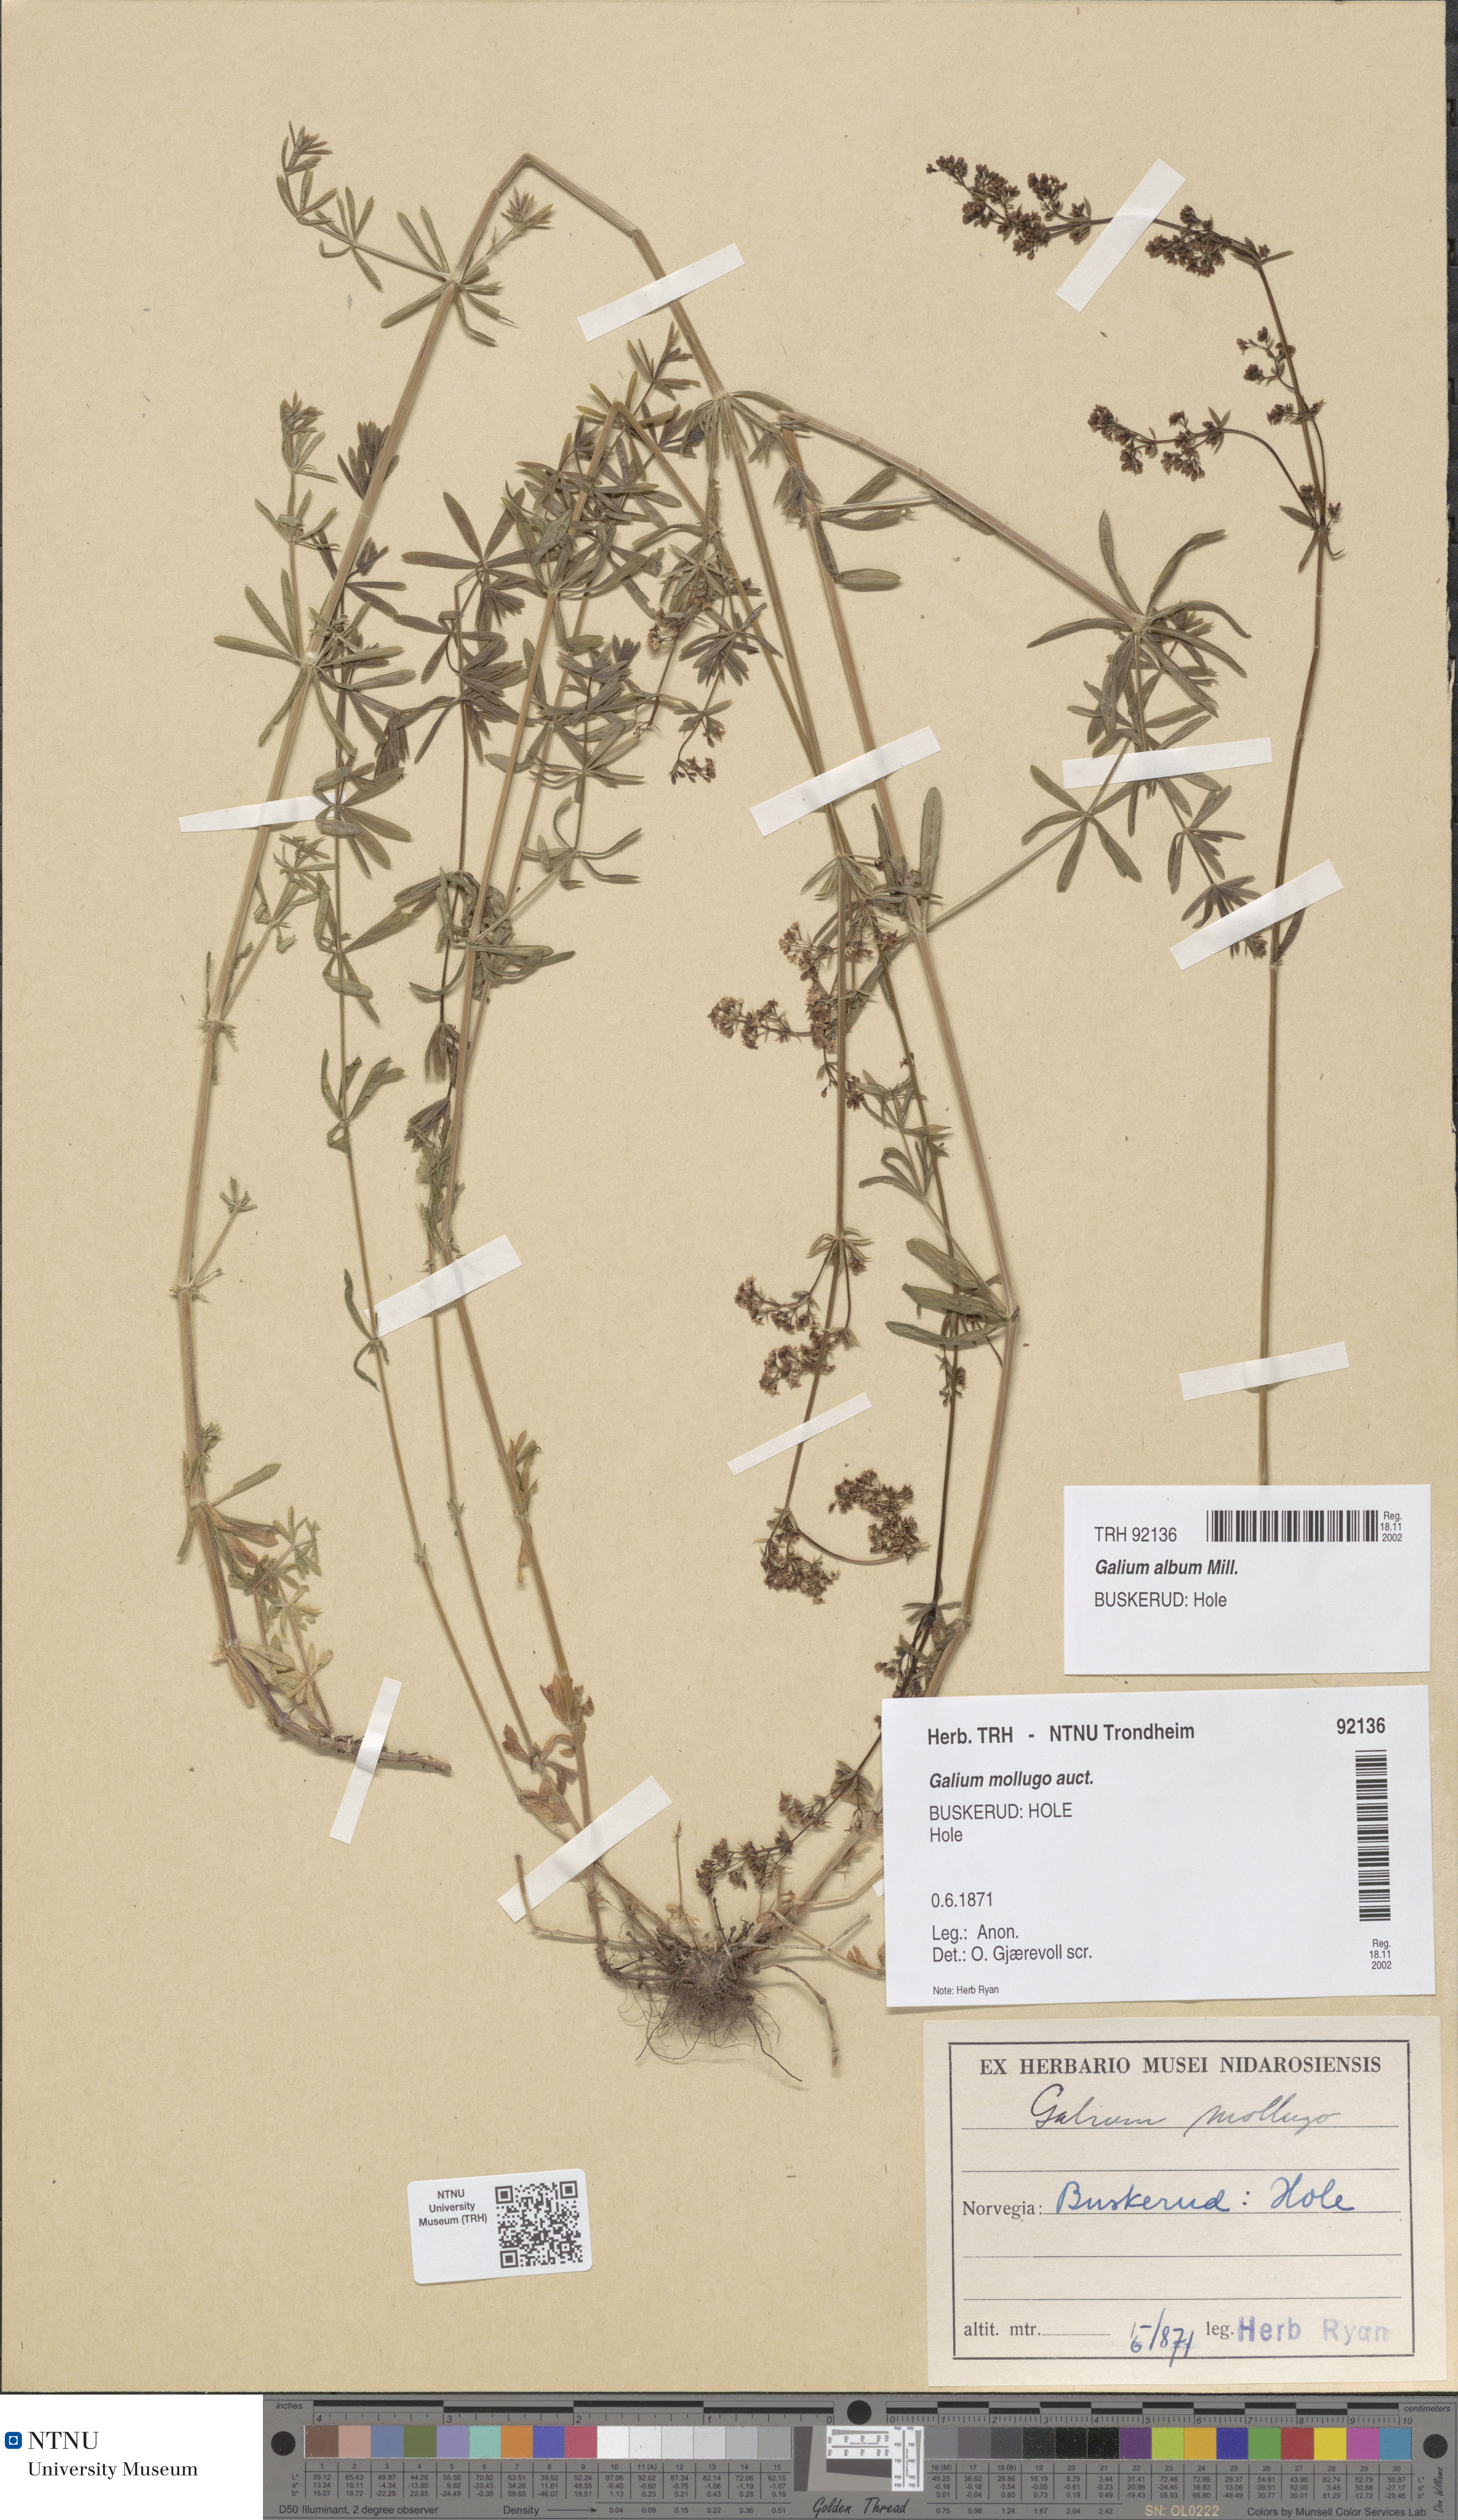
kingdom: Plantae
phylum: Tracheophyta
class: Magnoliopsida
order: Gentianales
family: Rubiaceae
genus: Galium
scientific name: Galium album
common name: White bedstraw
